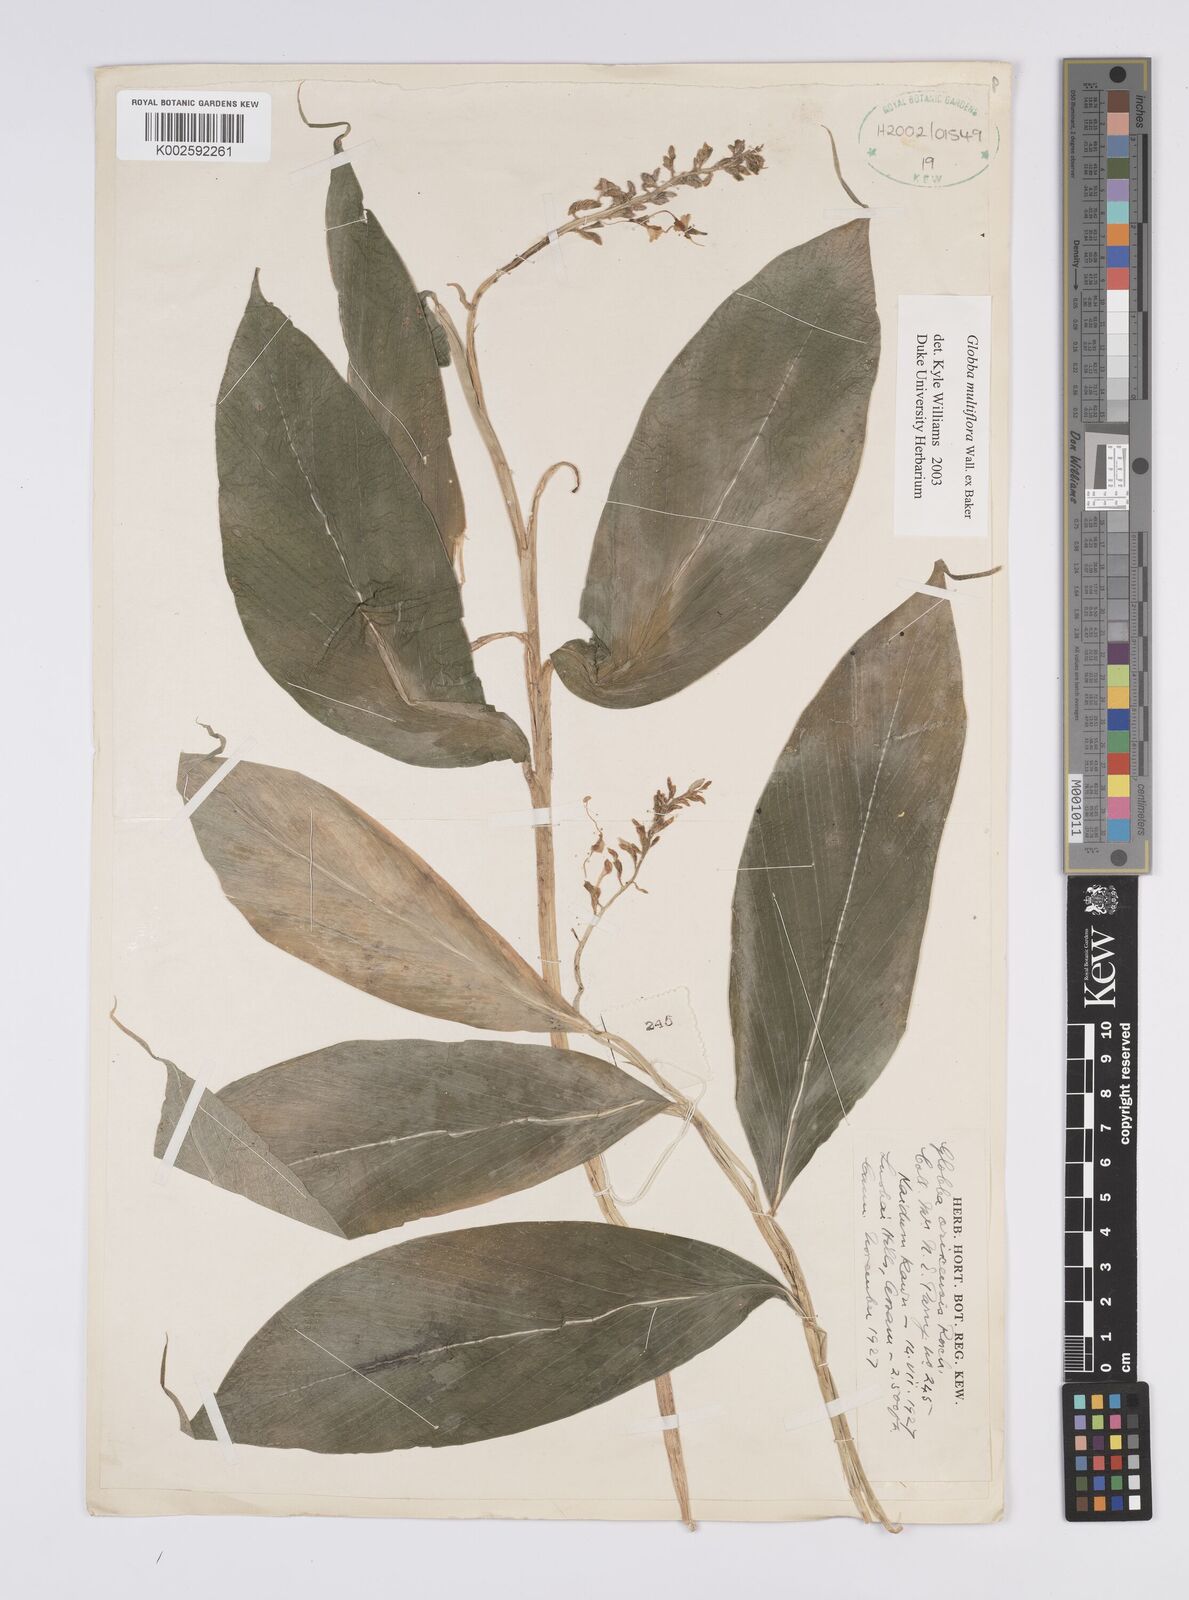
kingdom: Plantae
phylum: Tracheophyta
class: Liliopsida
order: Zingiberales
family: Zingiberaceae
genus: Globba
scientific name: Globba multiflora
